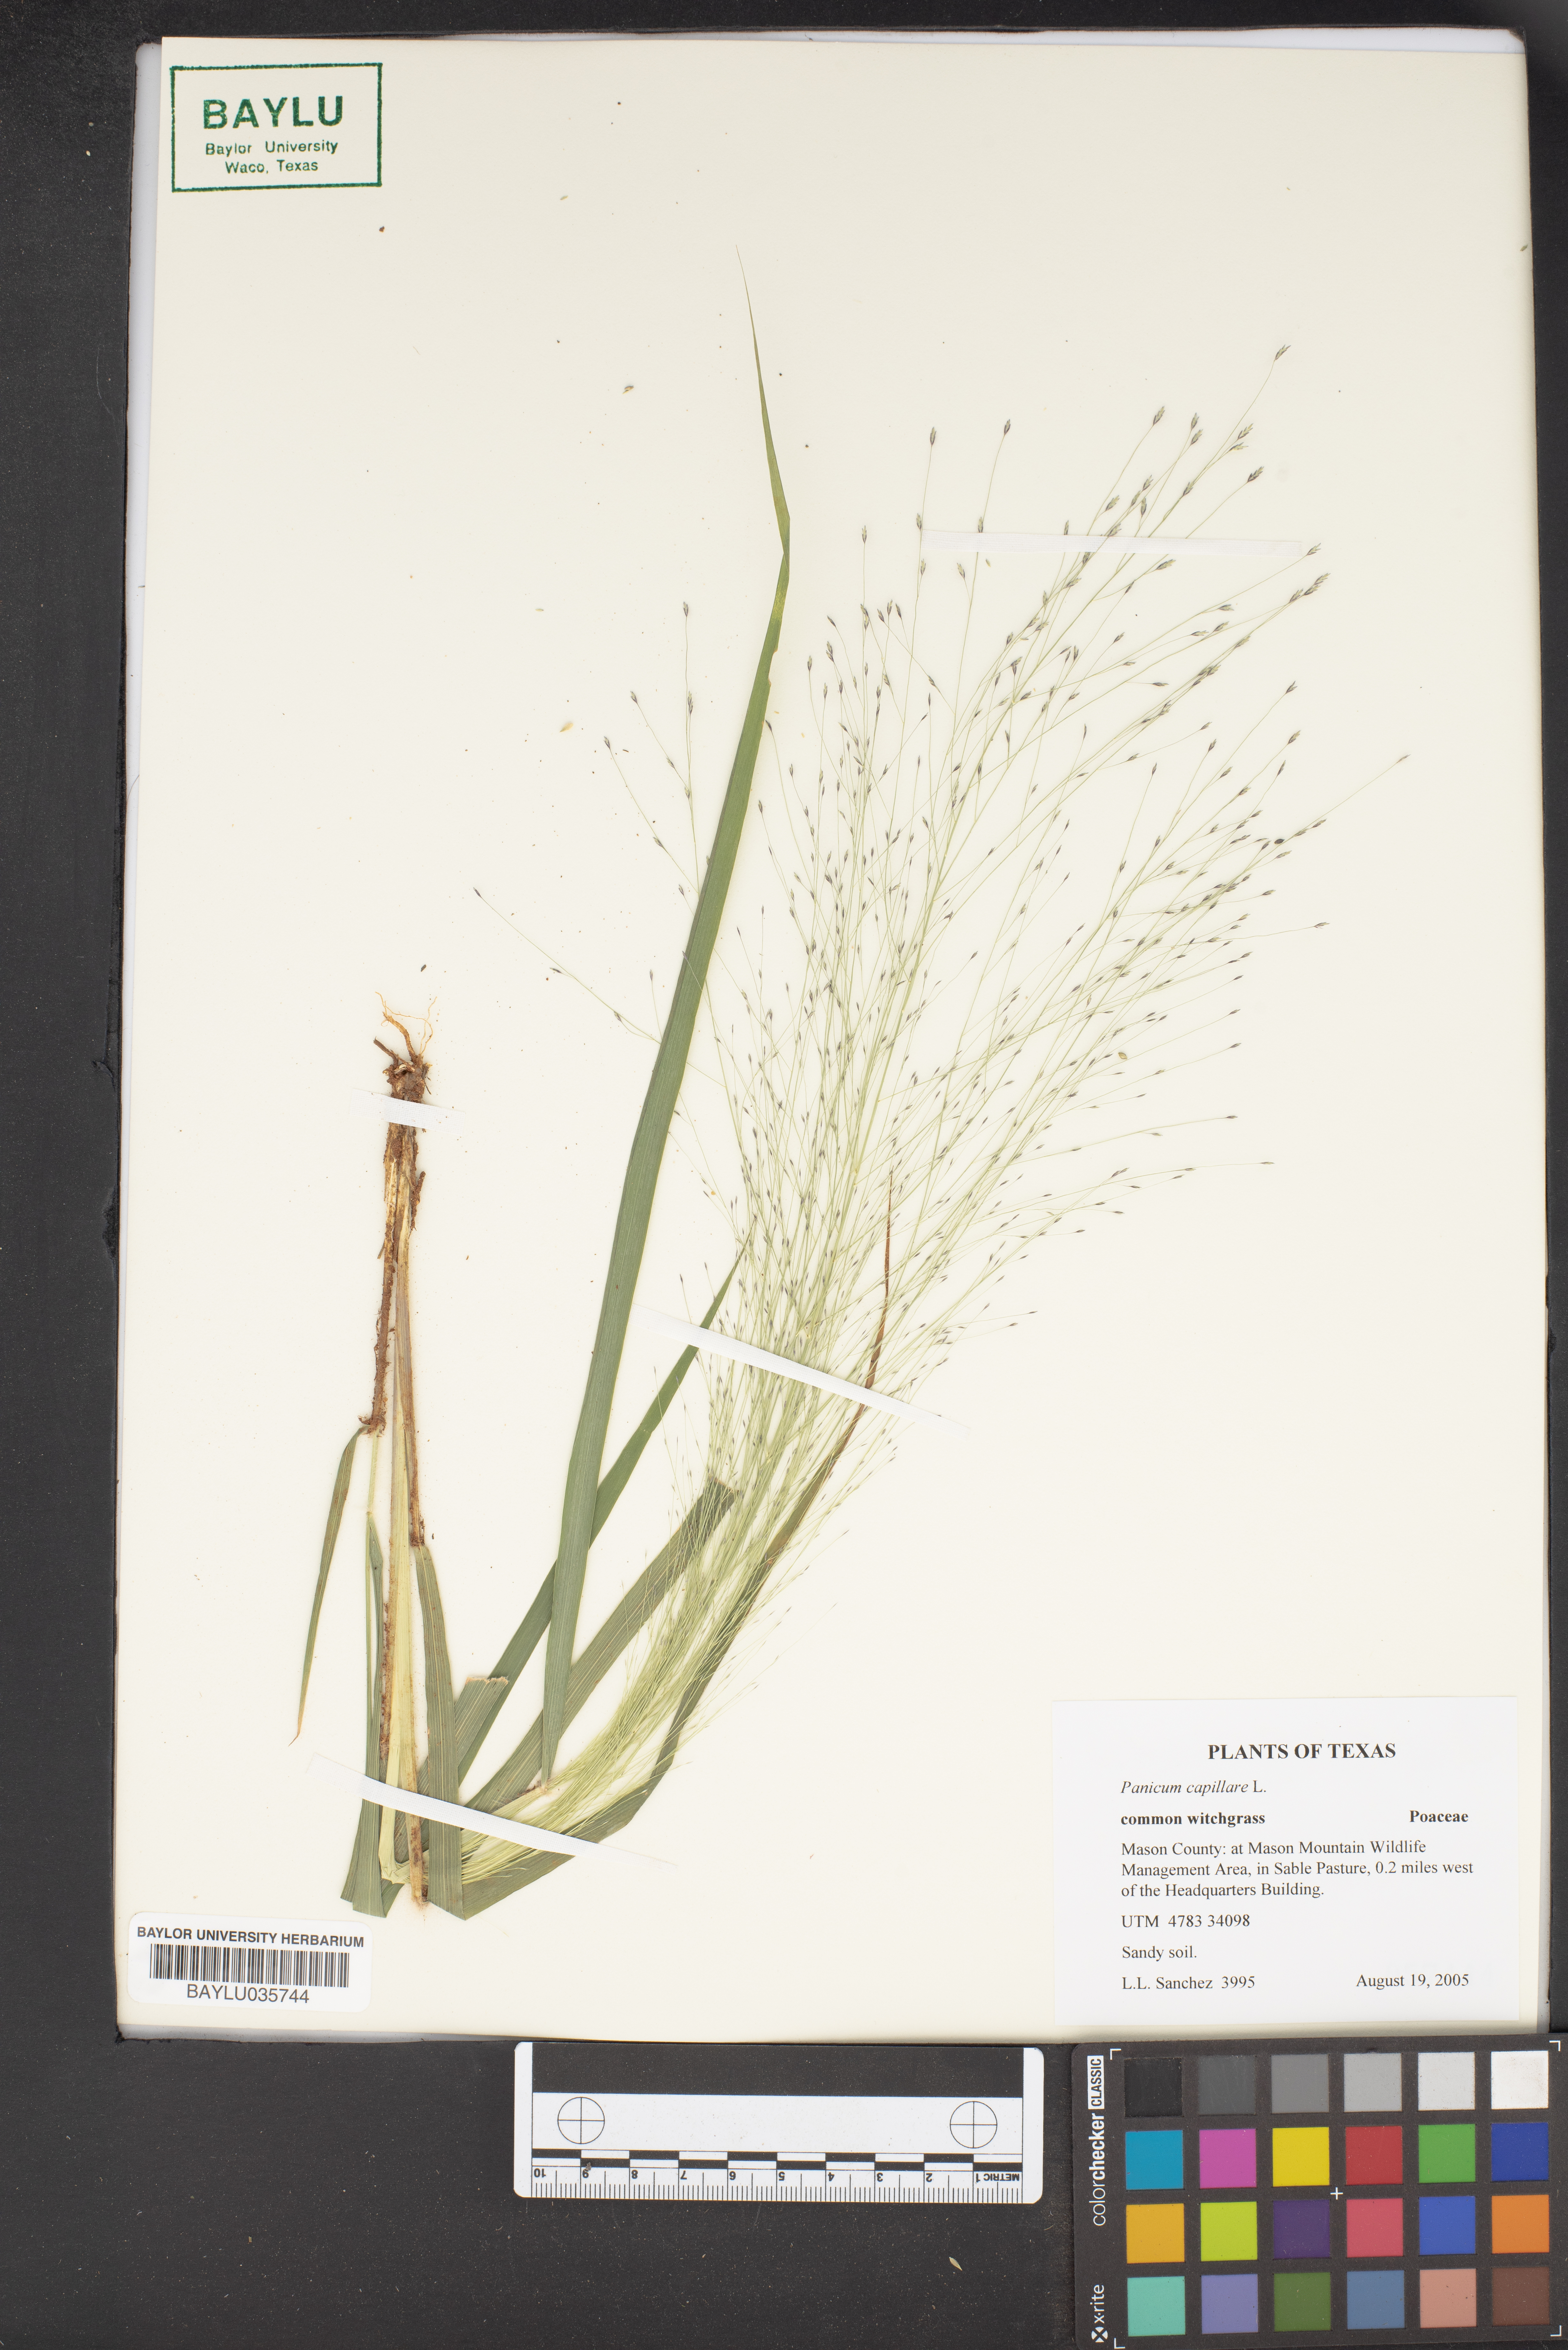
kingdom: Plantae
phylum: Tracheophyta
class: Liliopsida
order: Poales
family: Poaceae
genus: Panicum
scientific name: Panicum capillare
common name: Witch-grass
